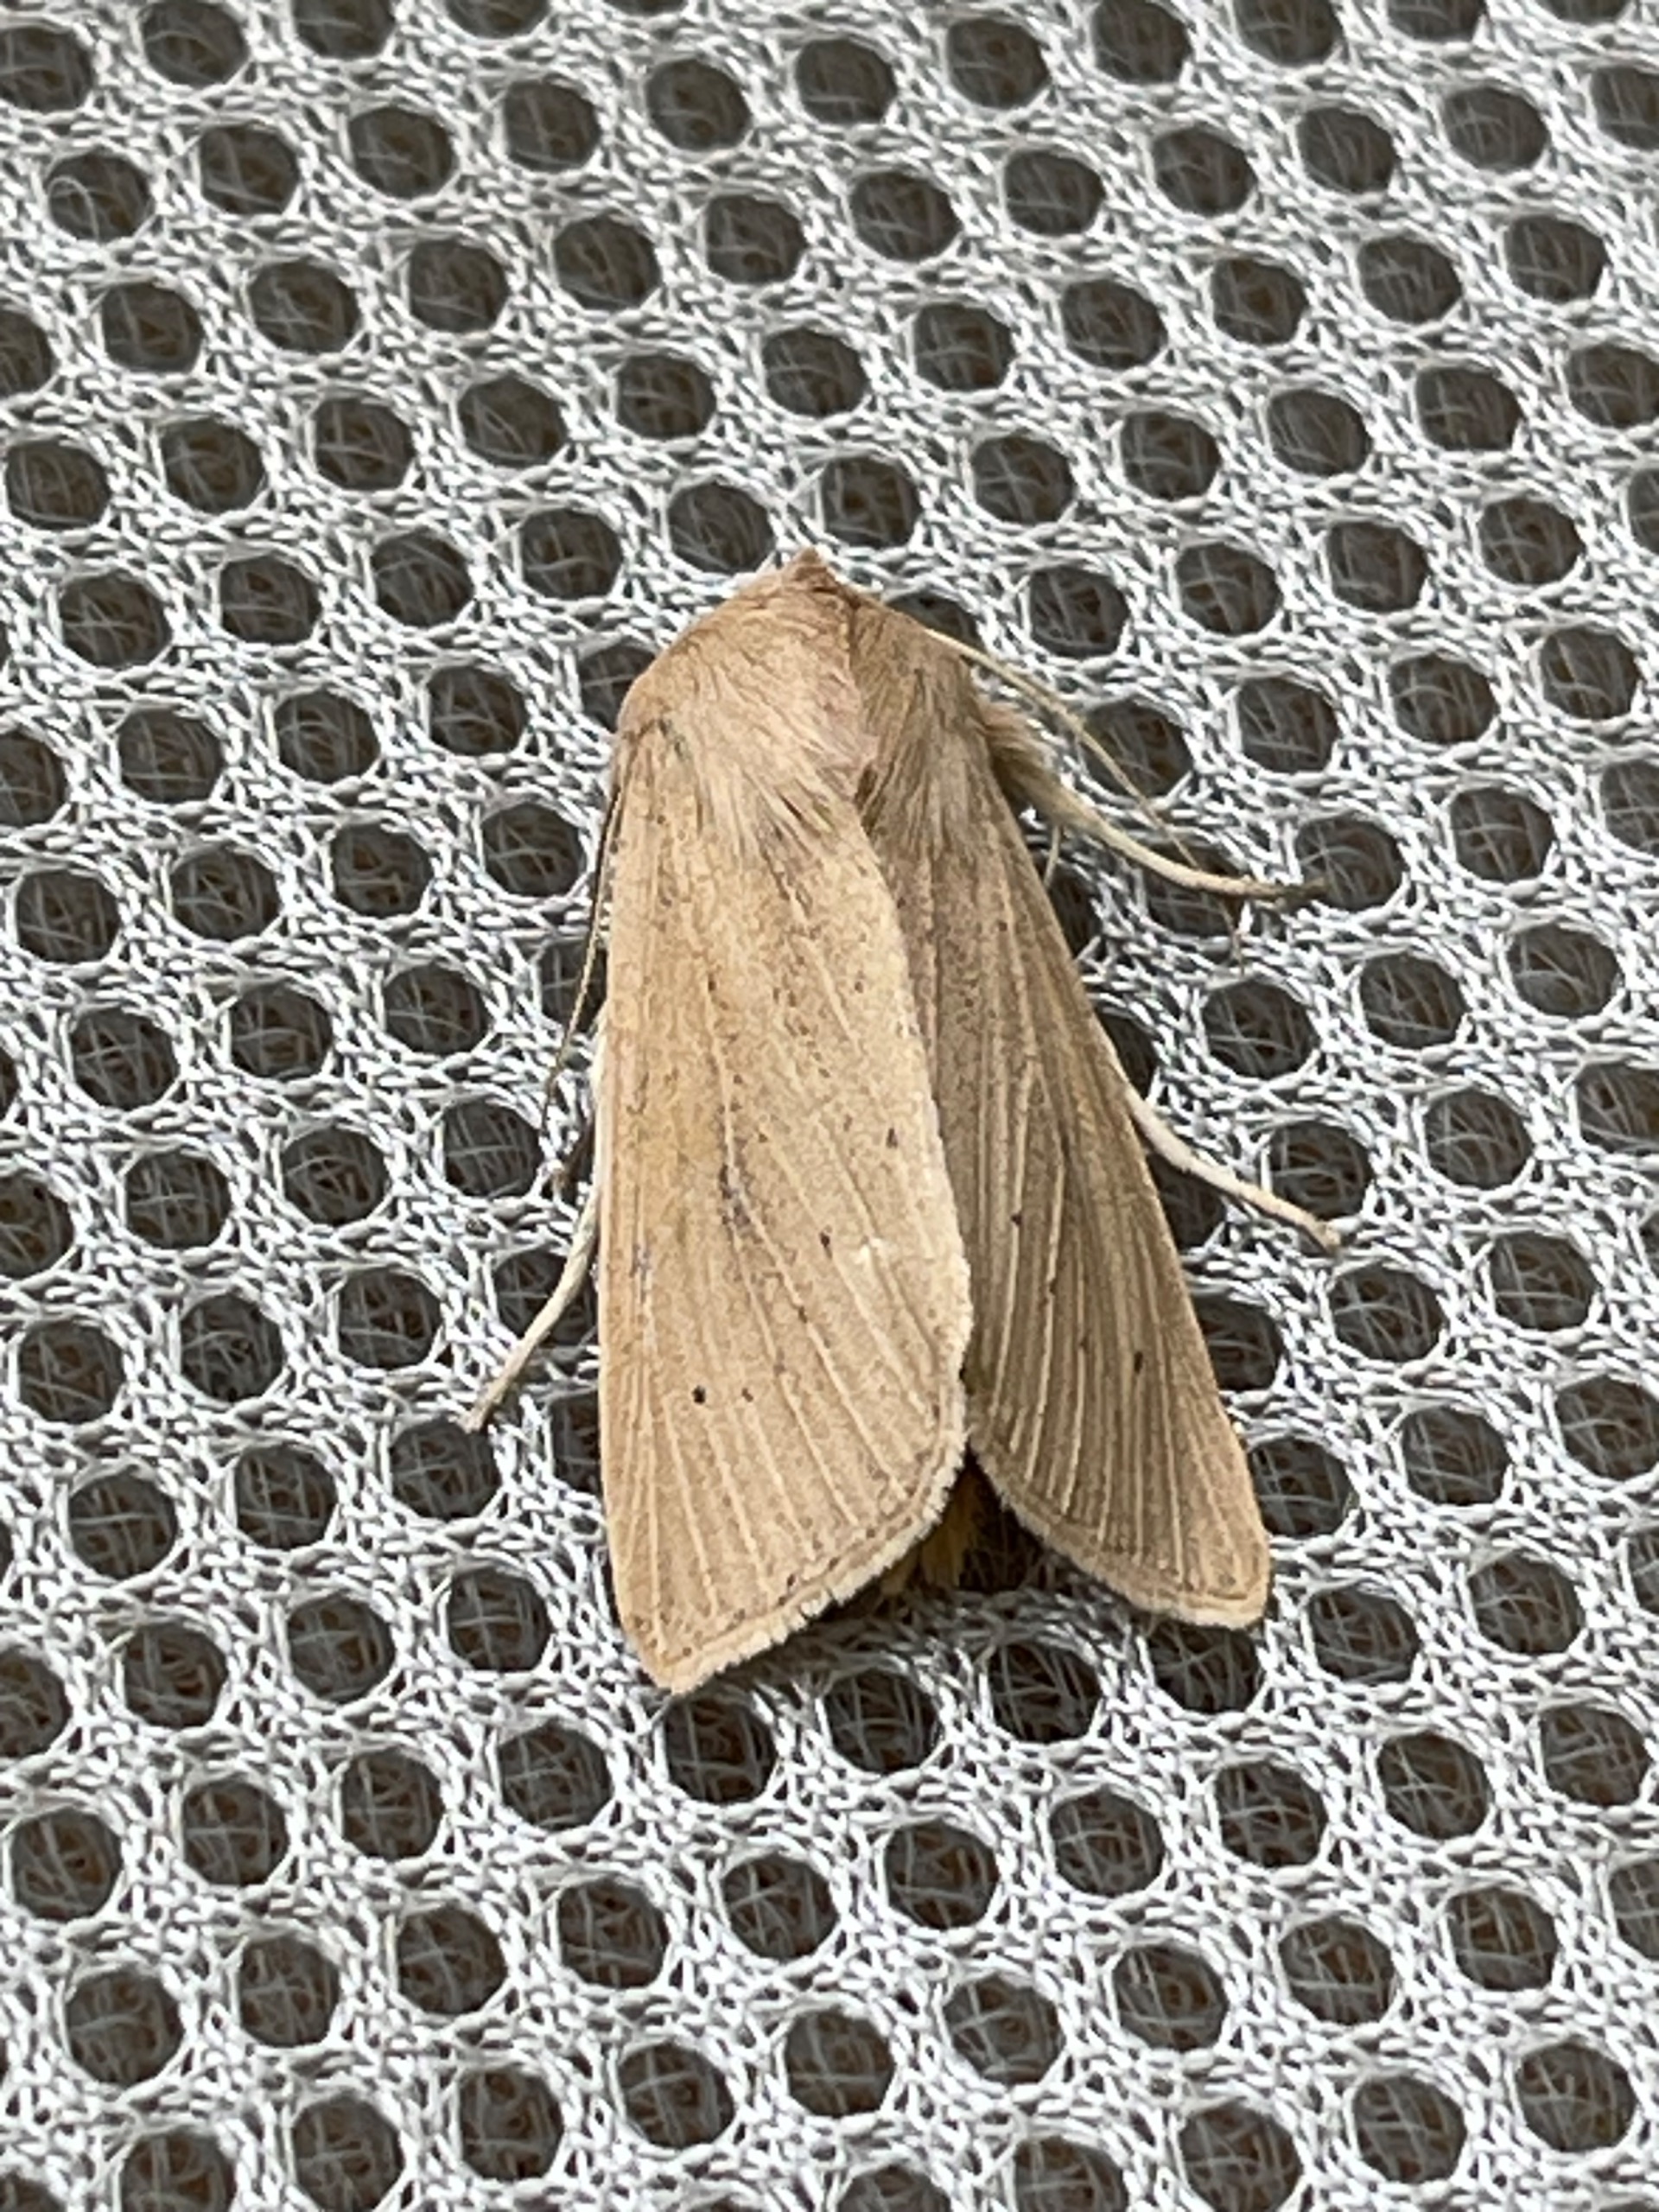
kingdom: Animalia
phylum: Arthropoda
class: Insecta
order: Lepidoptera
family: Noctuidae
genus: Rhizedra
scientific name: Rhizedra lutosa
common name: Stor sivugle
